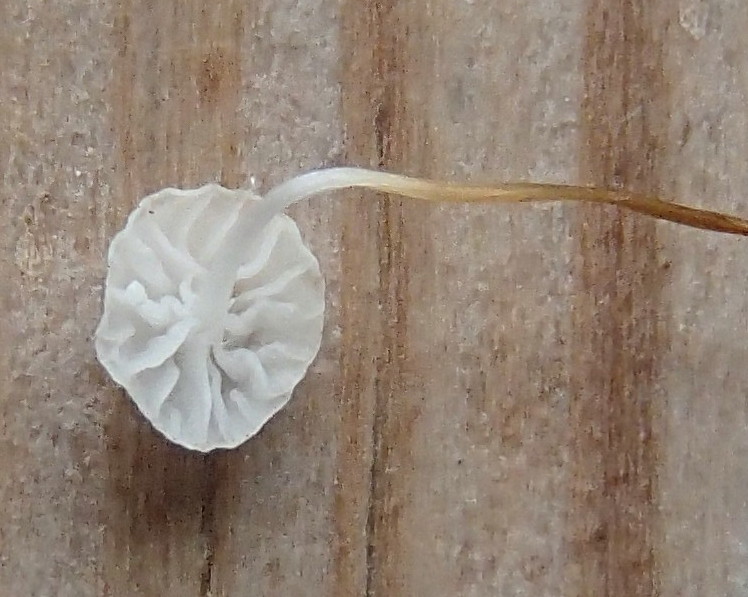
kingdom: Fungi
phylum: Basidiomycota
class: Agaricomycetes
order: Agaricales
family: Marasmiaceae
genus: Marasmius
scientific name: Marasmius
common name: bruskhat
